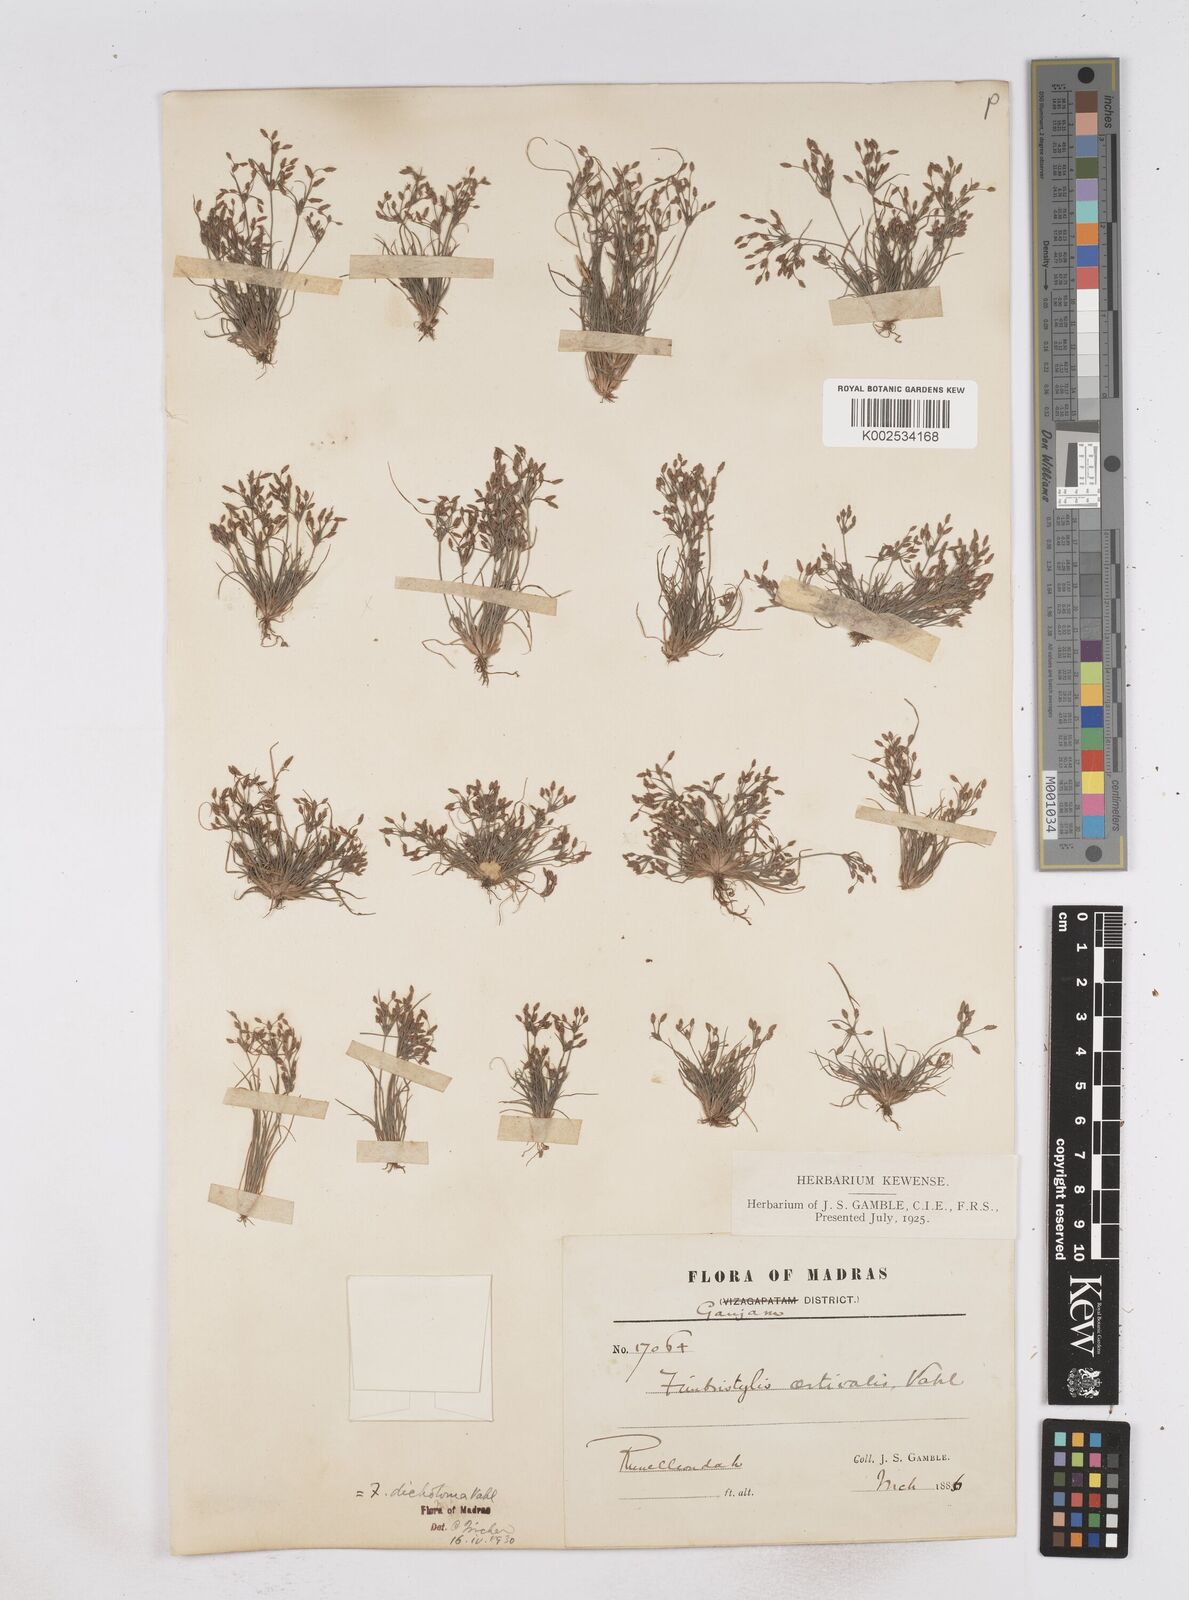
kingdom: Plantae
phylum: Tracheophyta
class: Liliopsida
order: Poales
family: Cyperaceae
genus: Fimbristylis
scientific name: Fimbristylis aestivalis
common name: Summer fimbry
